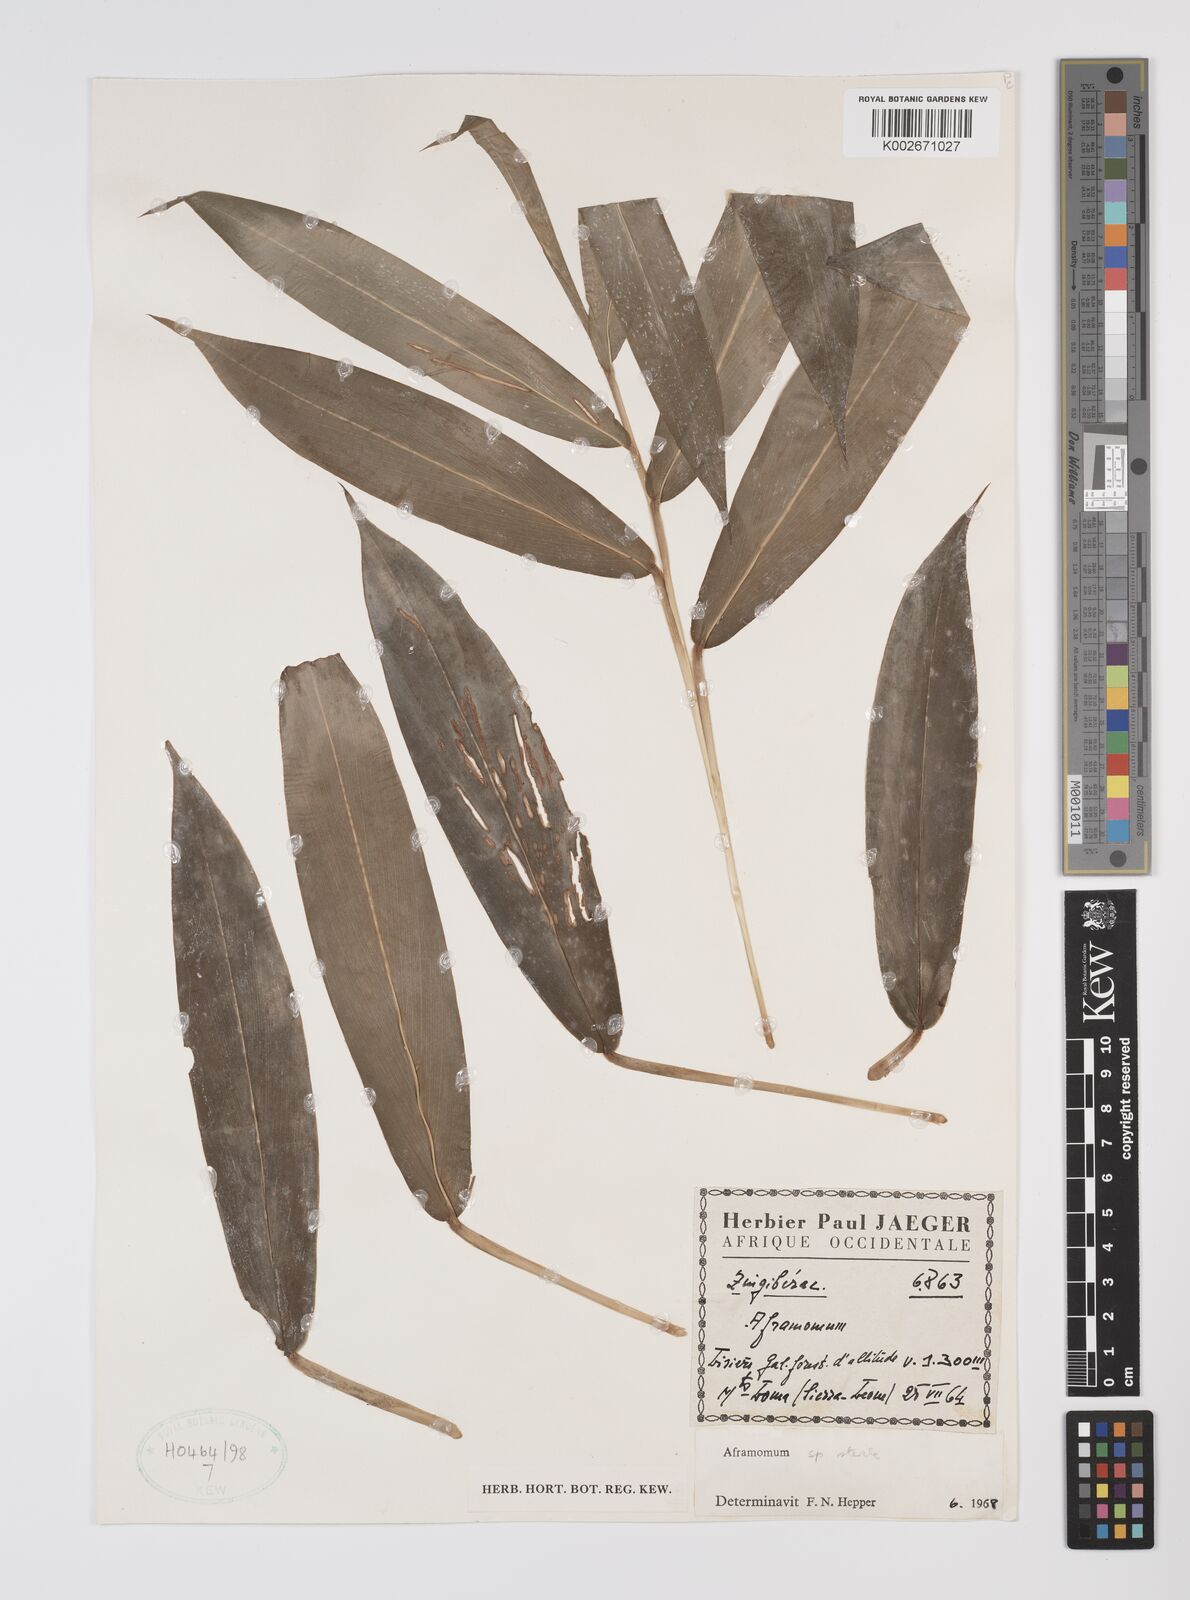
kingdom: Plantae
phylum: Tracheophyta
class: Liliopsida
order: Zingiberales
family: Zingiberaceae
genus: Aframomum
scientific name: Aframomum
